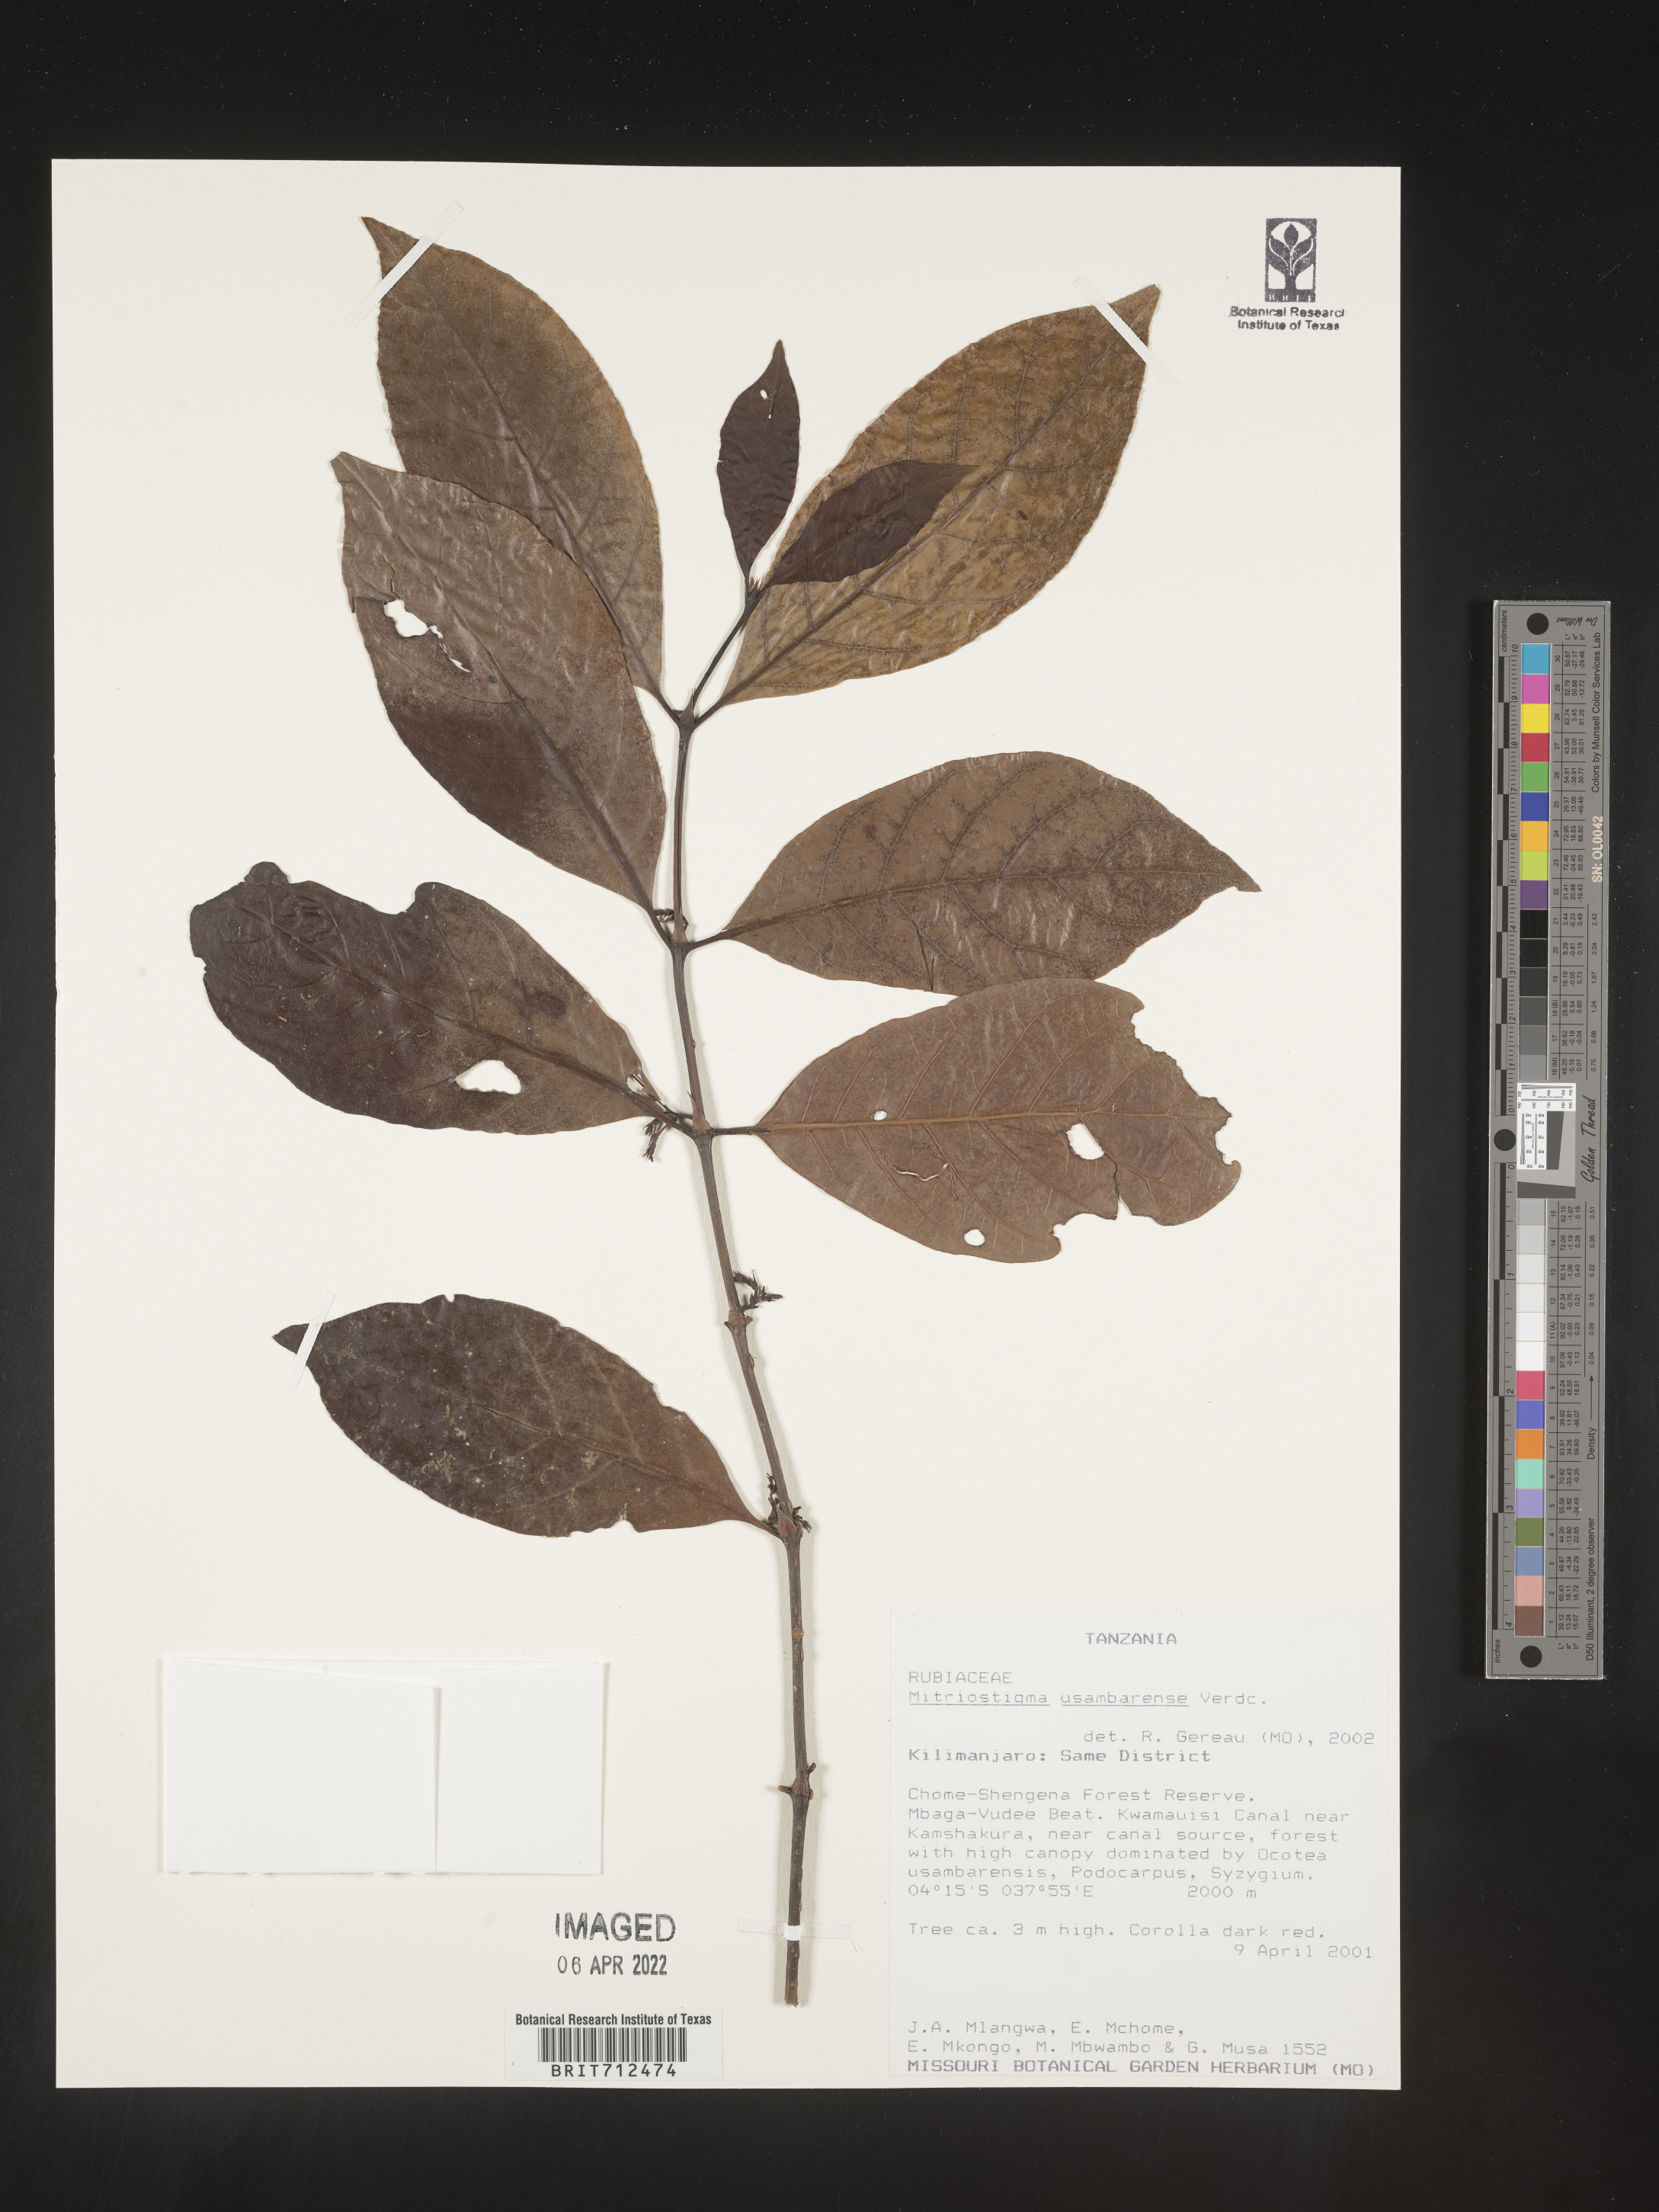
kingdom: Plantae
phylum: Tracheophyta
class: Magnoliopsida
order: Gentianales
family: Rubiaceae
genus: Mitriostigma
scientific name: Mitriostigma
